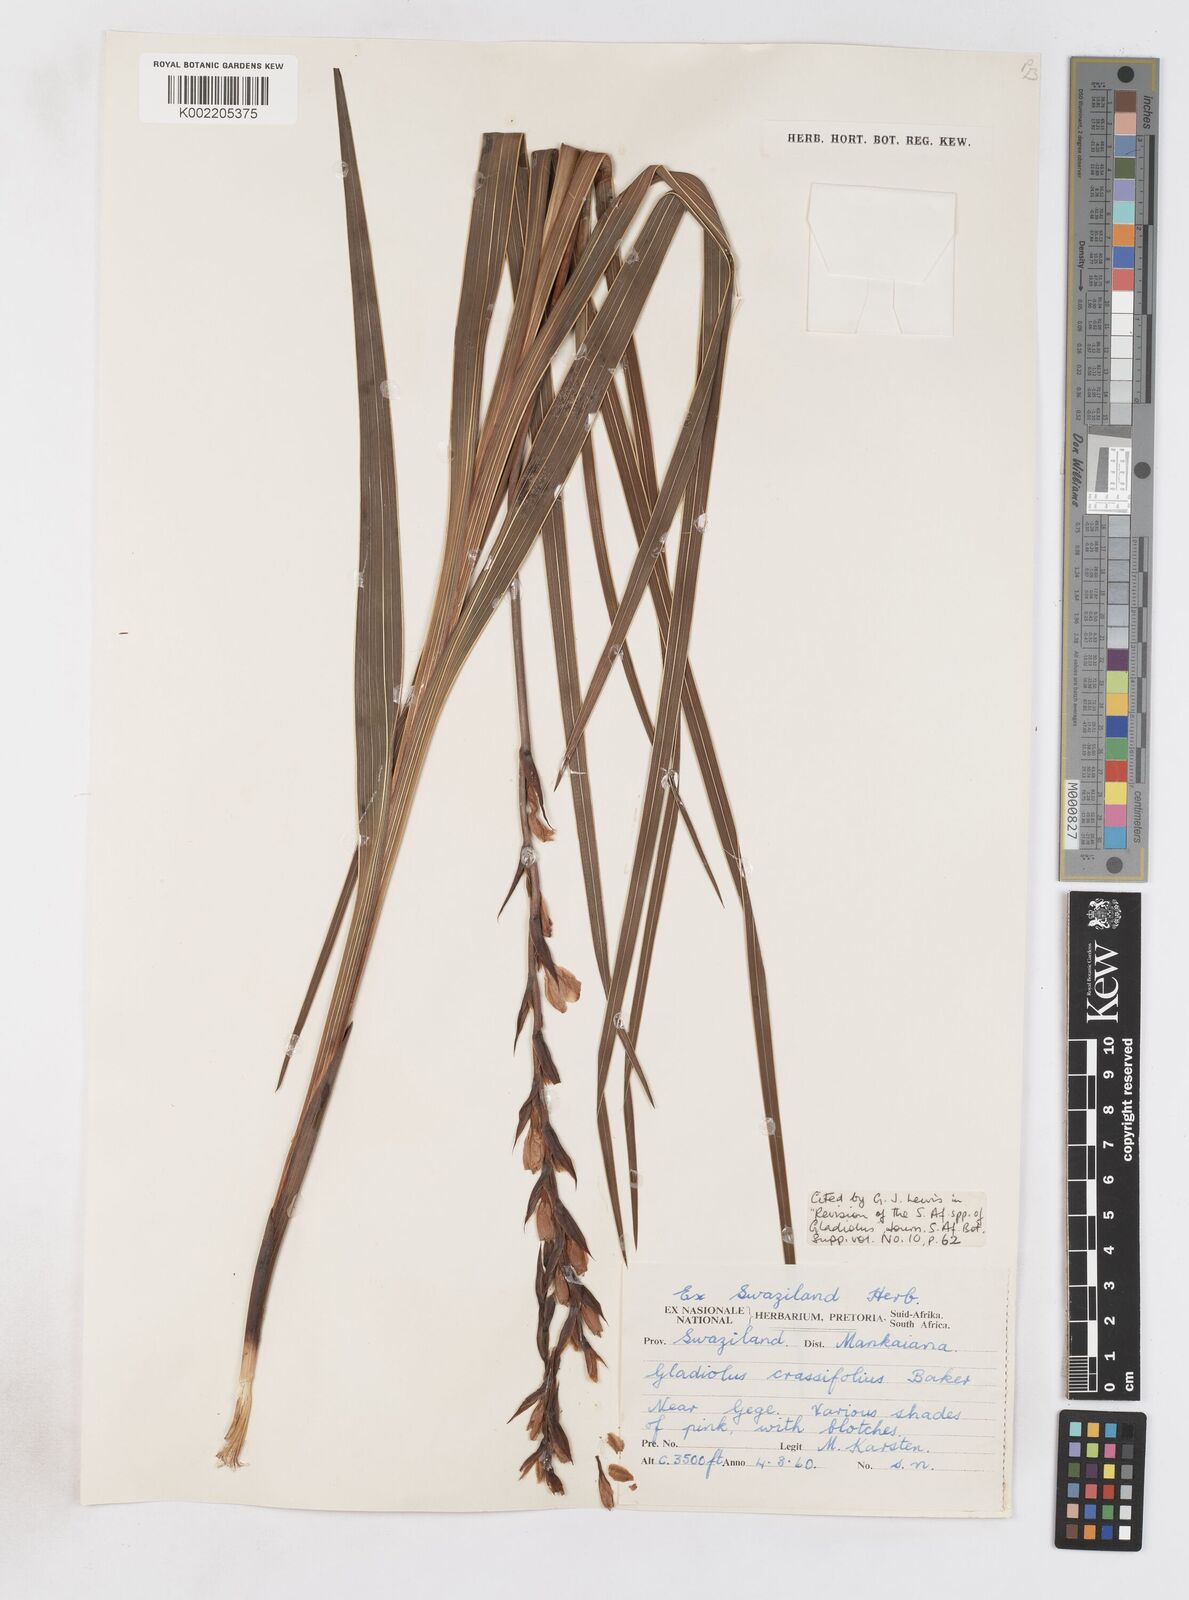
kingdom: Plantae
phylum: Tracheophyta
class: Liliopsida
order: Asparagales
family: Iridaceae
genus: Gladiolus
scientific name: Gladiolus crassifolius
